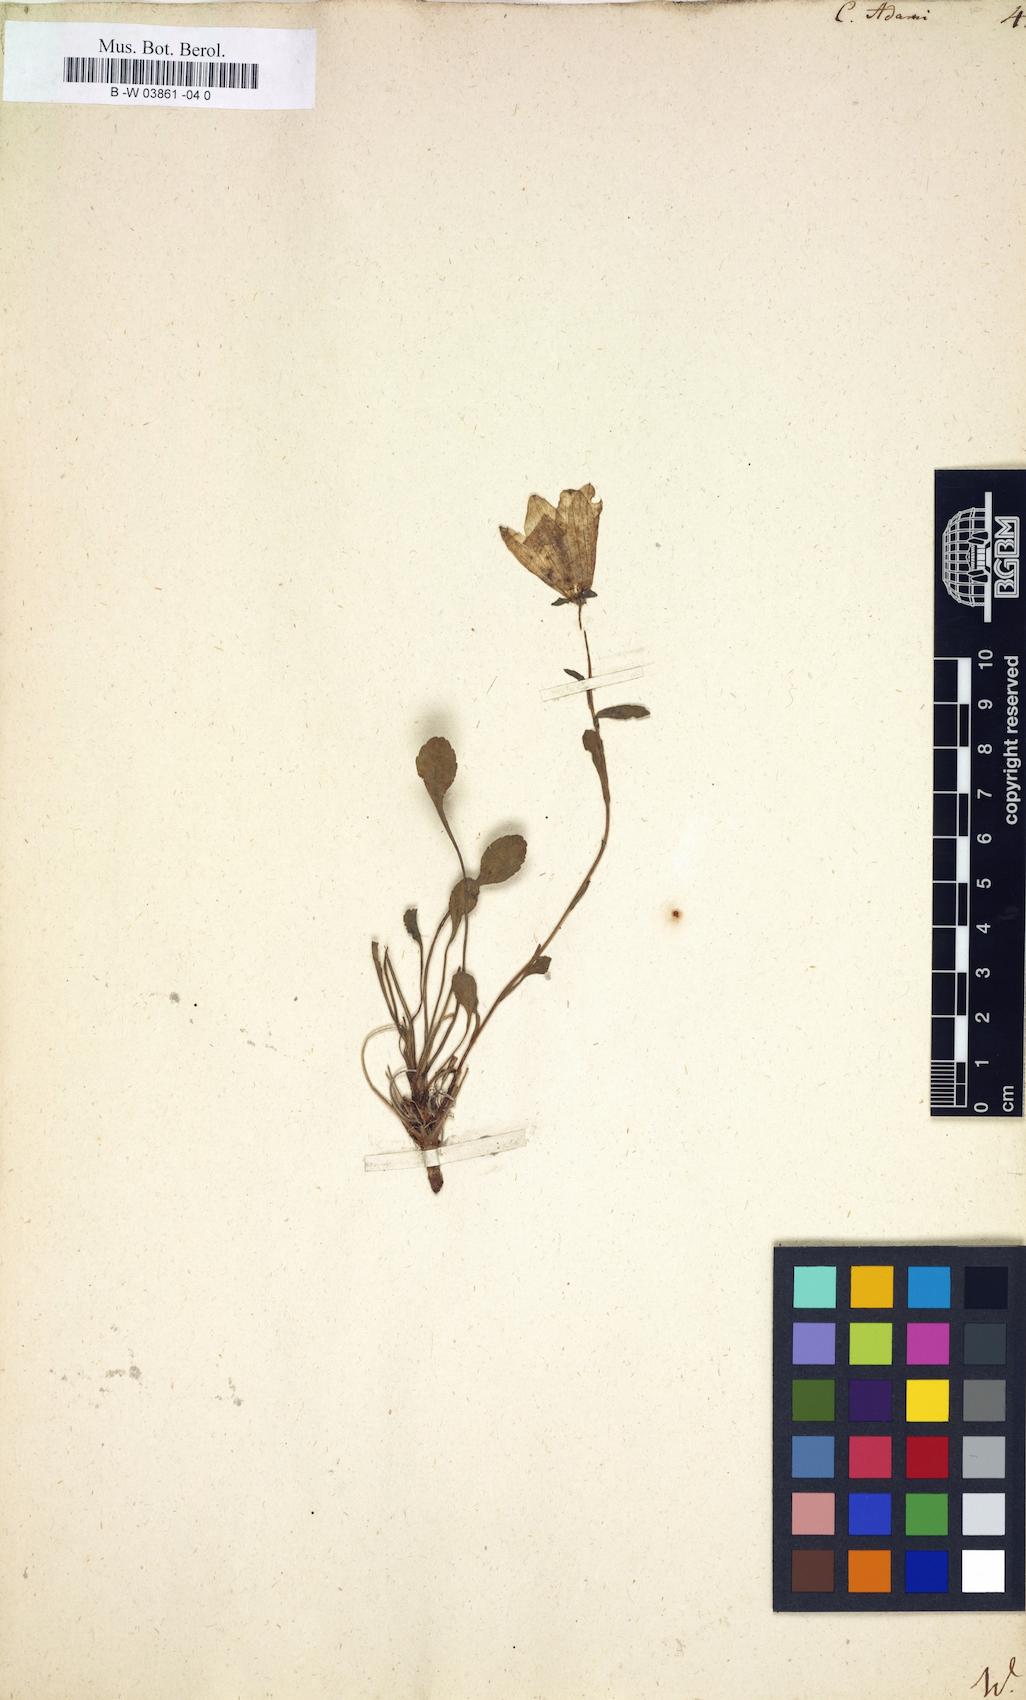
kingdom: Plantae
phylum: Tracheophyta
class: Magnoliopsida
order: Asterales
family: Campanulaceae
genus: Campanula
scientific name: Campanula bellidifolia
